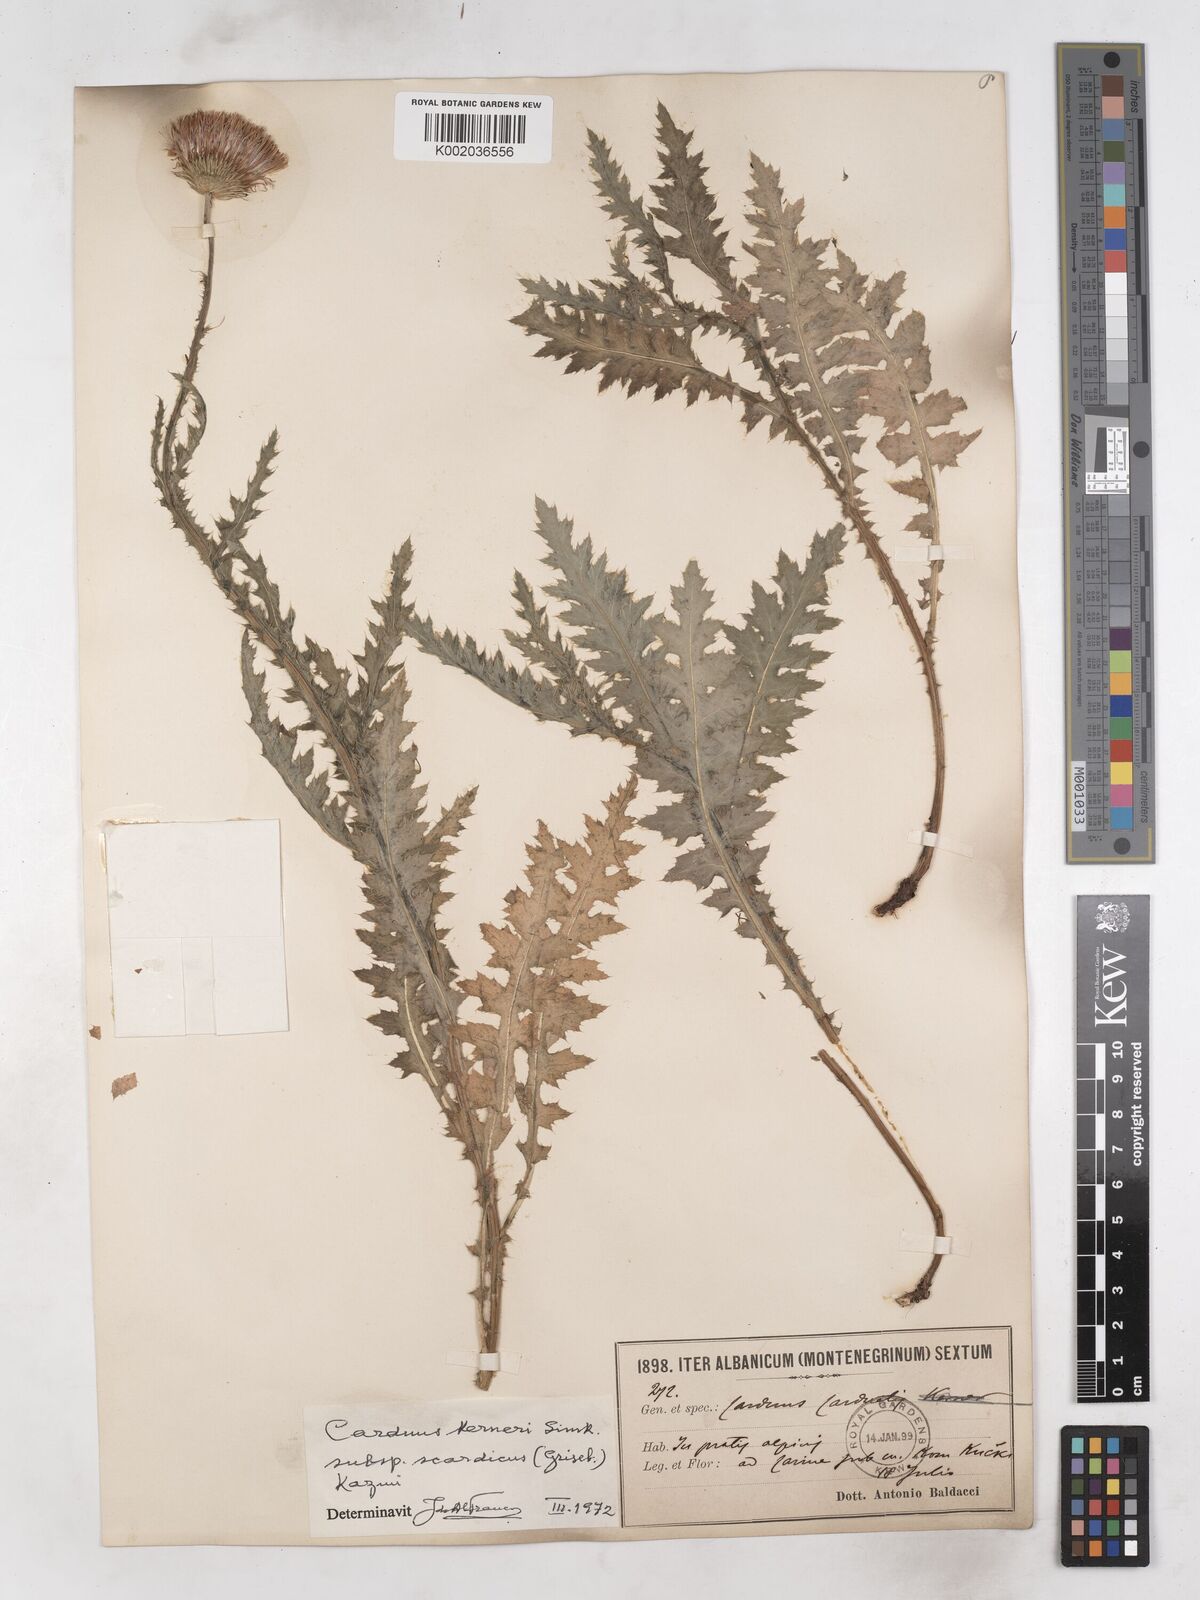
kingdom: Plantae
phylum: Tracheophyta
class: Magnoliopsida
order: Asterales
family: Asteraceae
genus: Carduus
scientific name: Carduus kerneri
